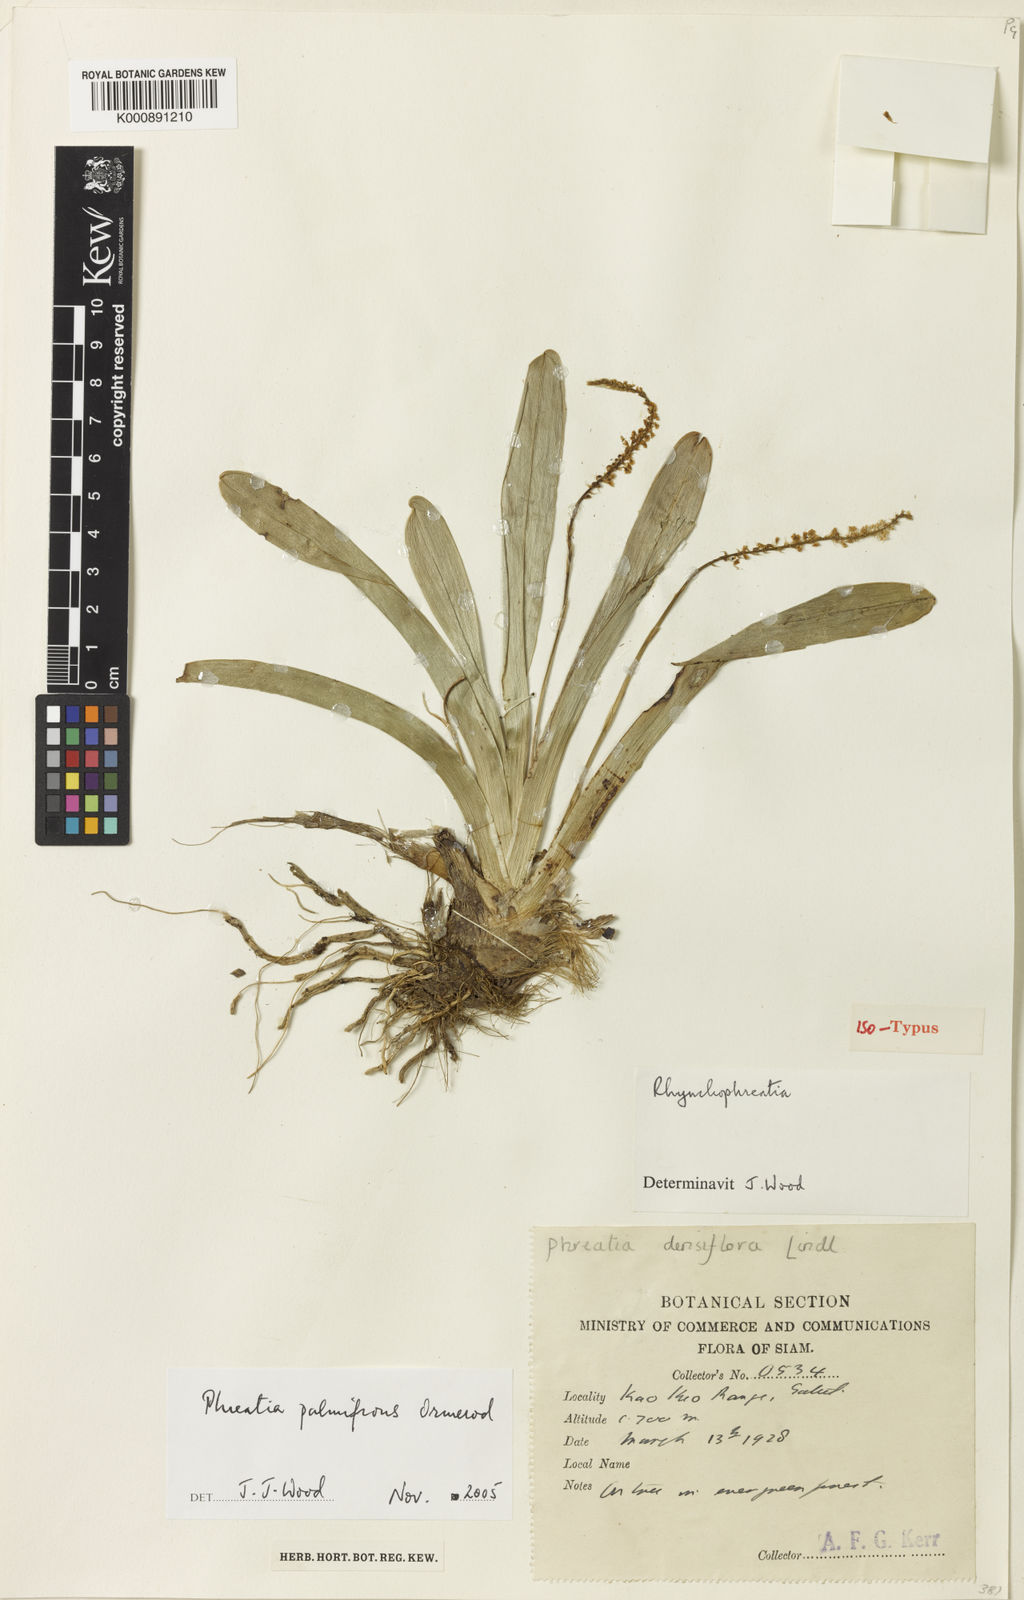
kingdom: Plantae
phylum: Tracheophyta
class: Liliopsida
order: Asparagales
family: Orchidaceae
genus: Phreatia
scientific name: Phreatia palmifrons
